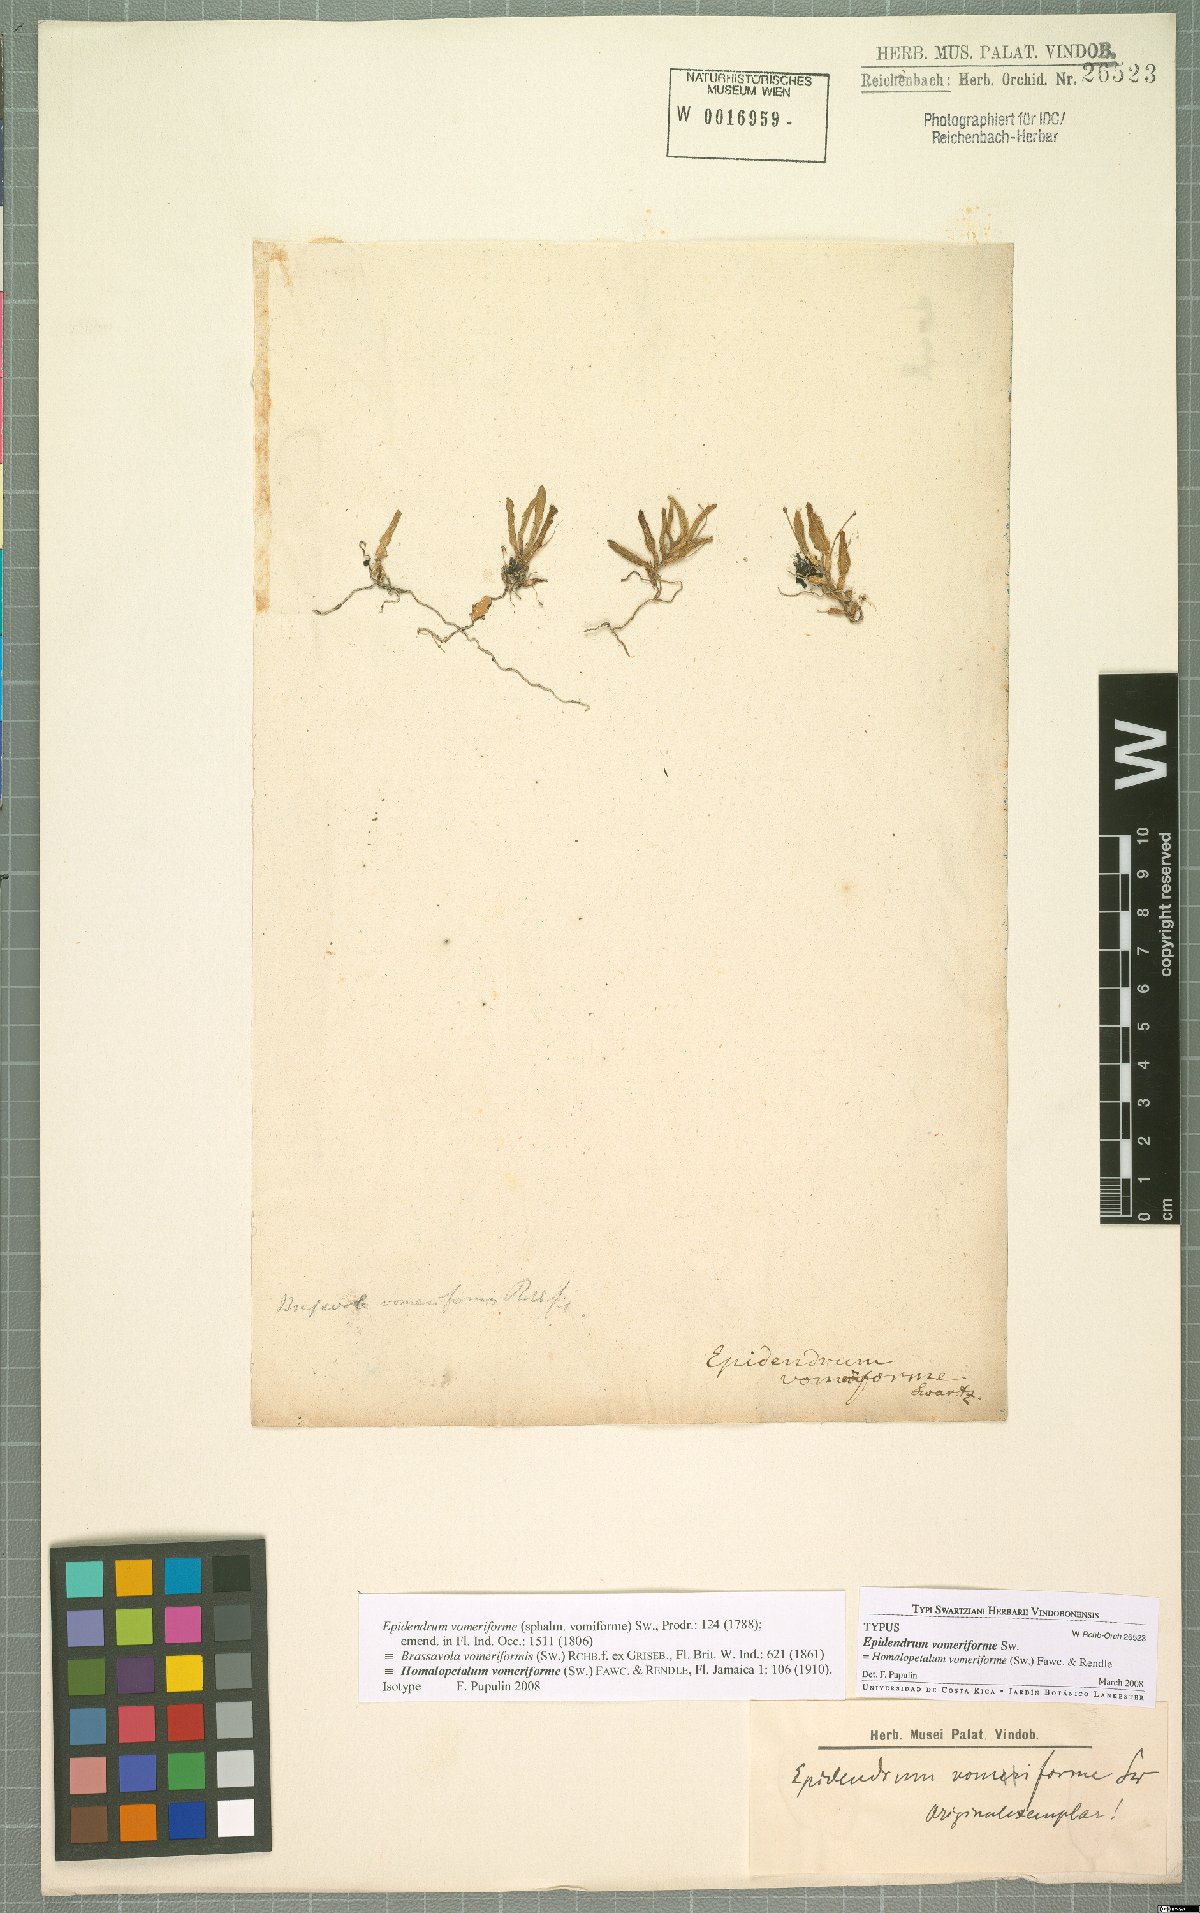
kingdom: Plantae
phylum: Tracheophyta
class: Liliopsida
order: Asparagales
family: Orchidaceae
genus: Homalopetalum
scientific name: Homalopetalum vomeriforme
